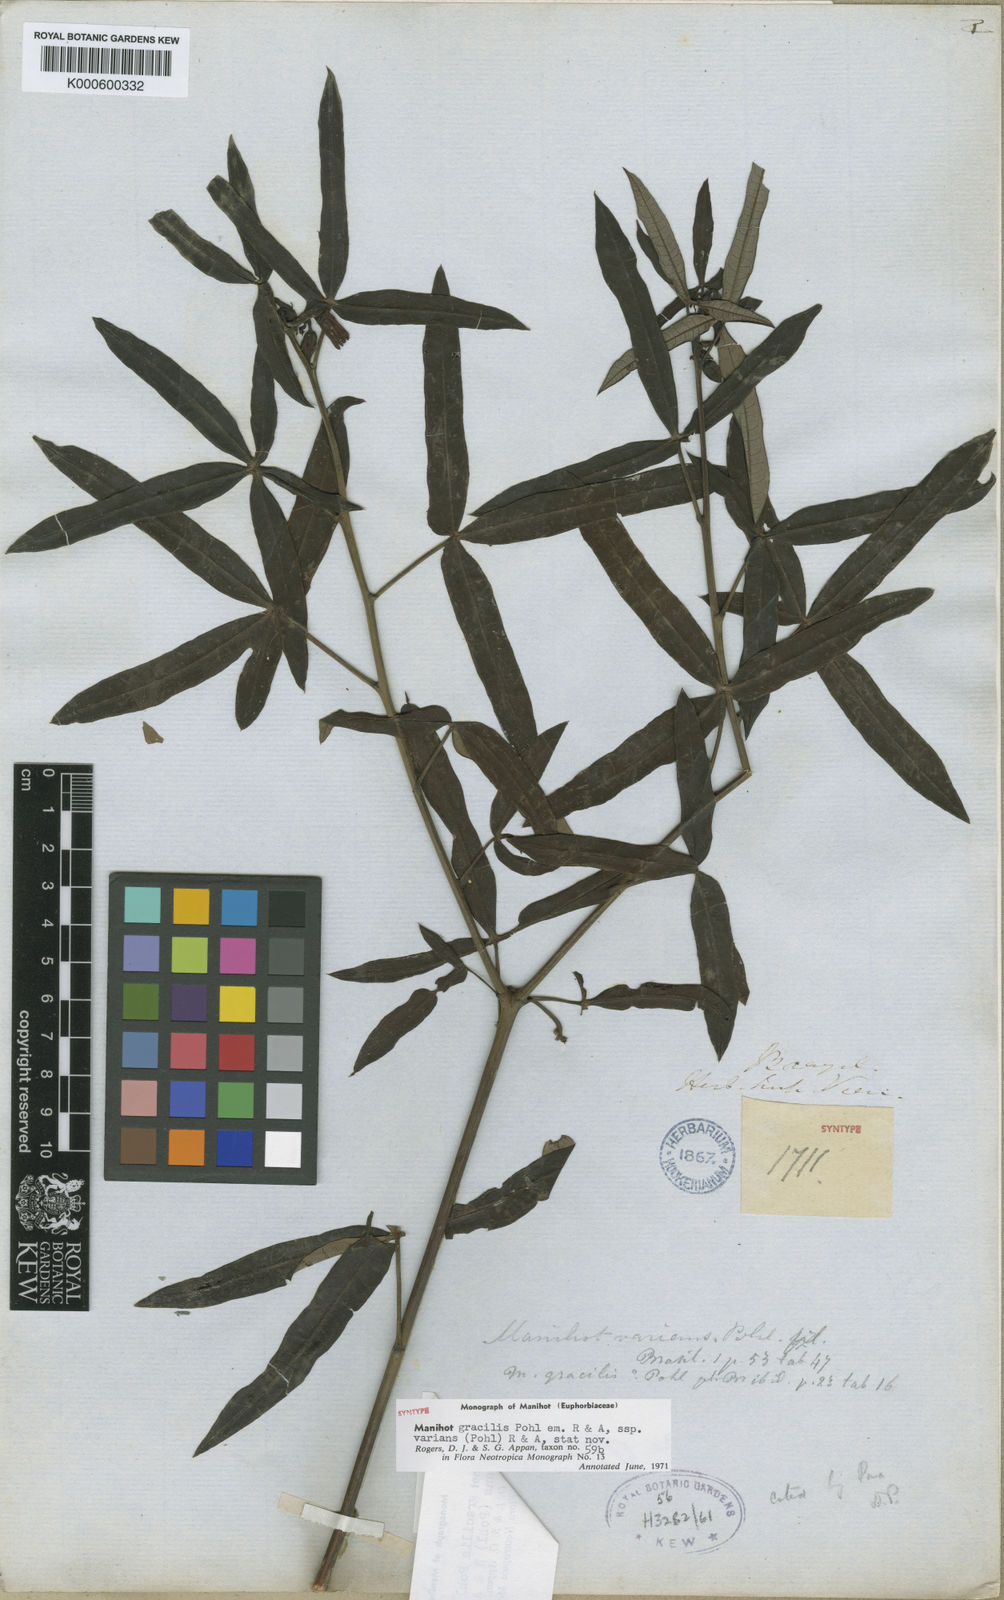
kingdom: Plantae
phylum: Tracheophyta
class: Magnoliopsida
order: Malpighiales
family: Euphorbiaceae
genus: Manihot
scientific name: Manihot gracilis
